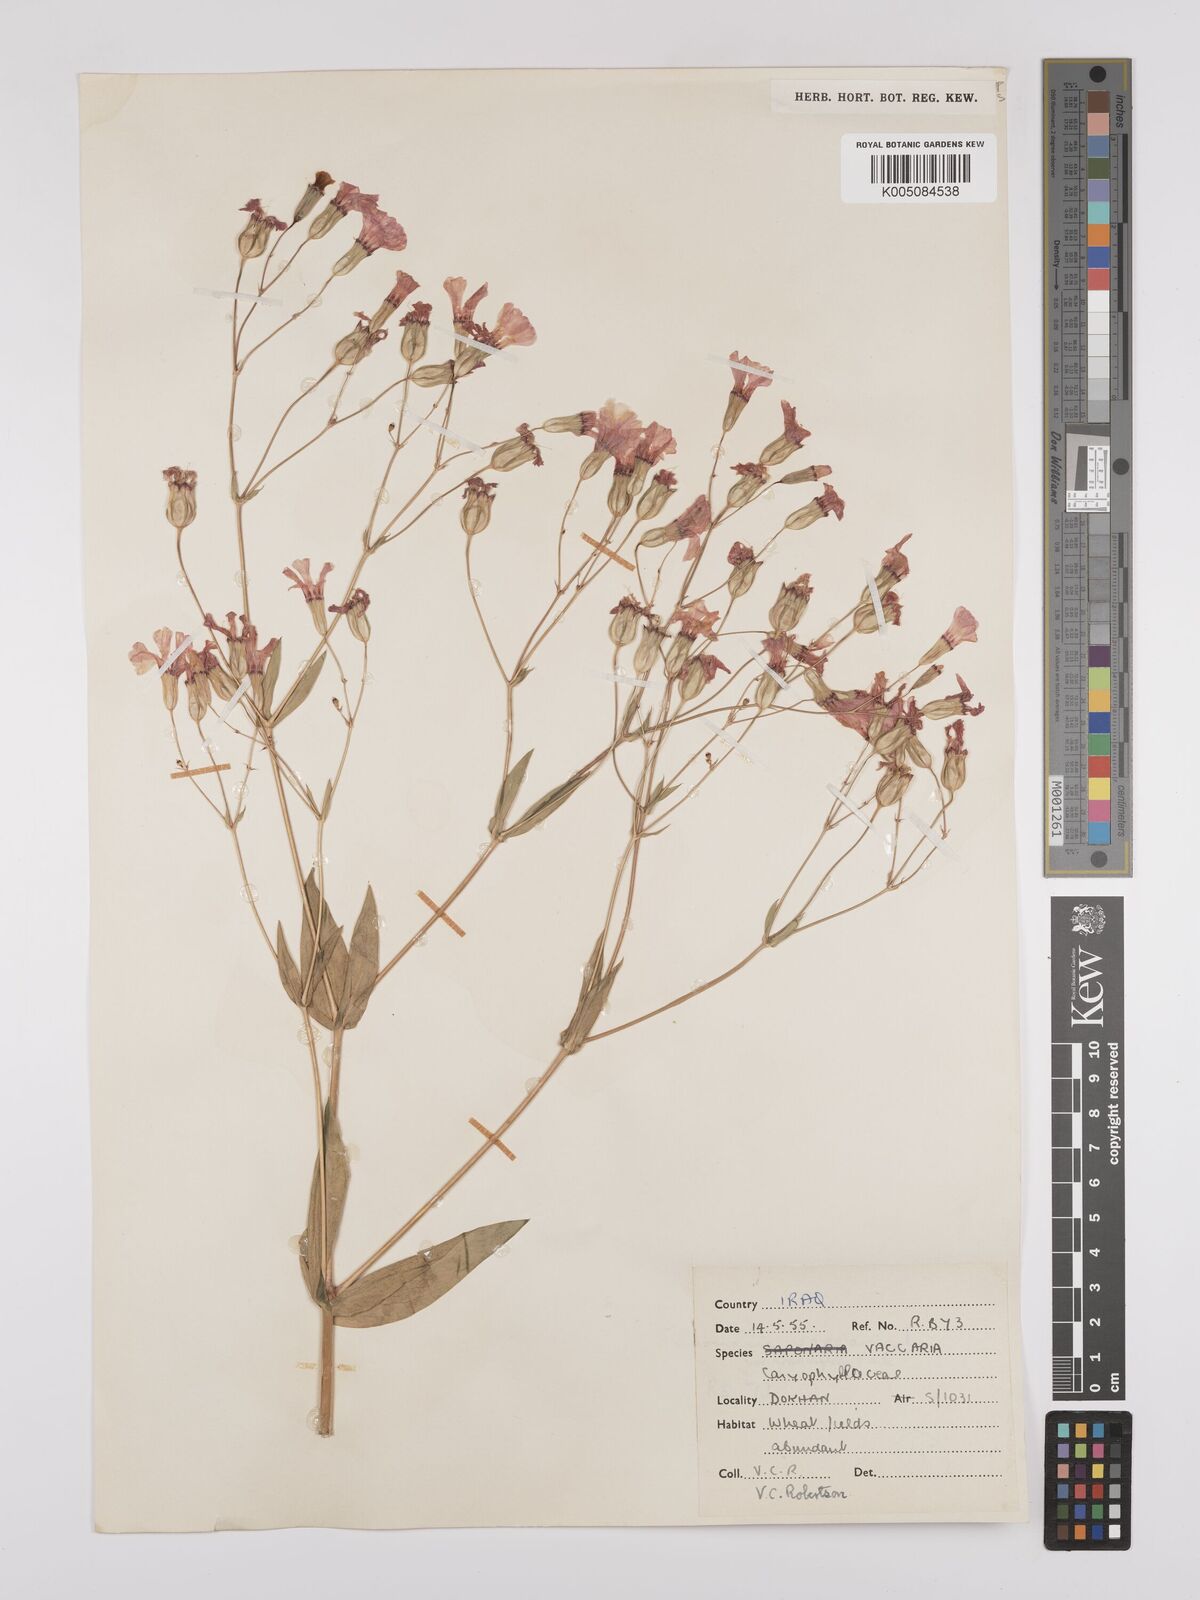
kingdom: Plantae
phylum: Tracheophyta
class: Magnoliopsida
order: Caryophyllales
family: Caryophyllaceae
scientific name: Caryophyllaceae
